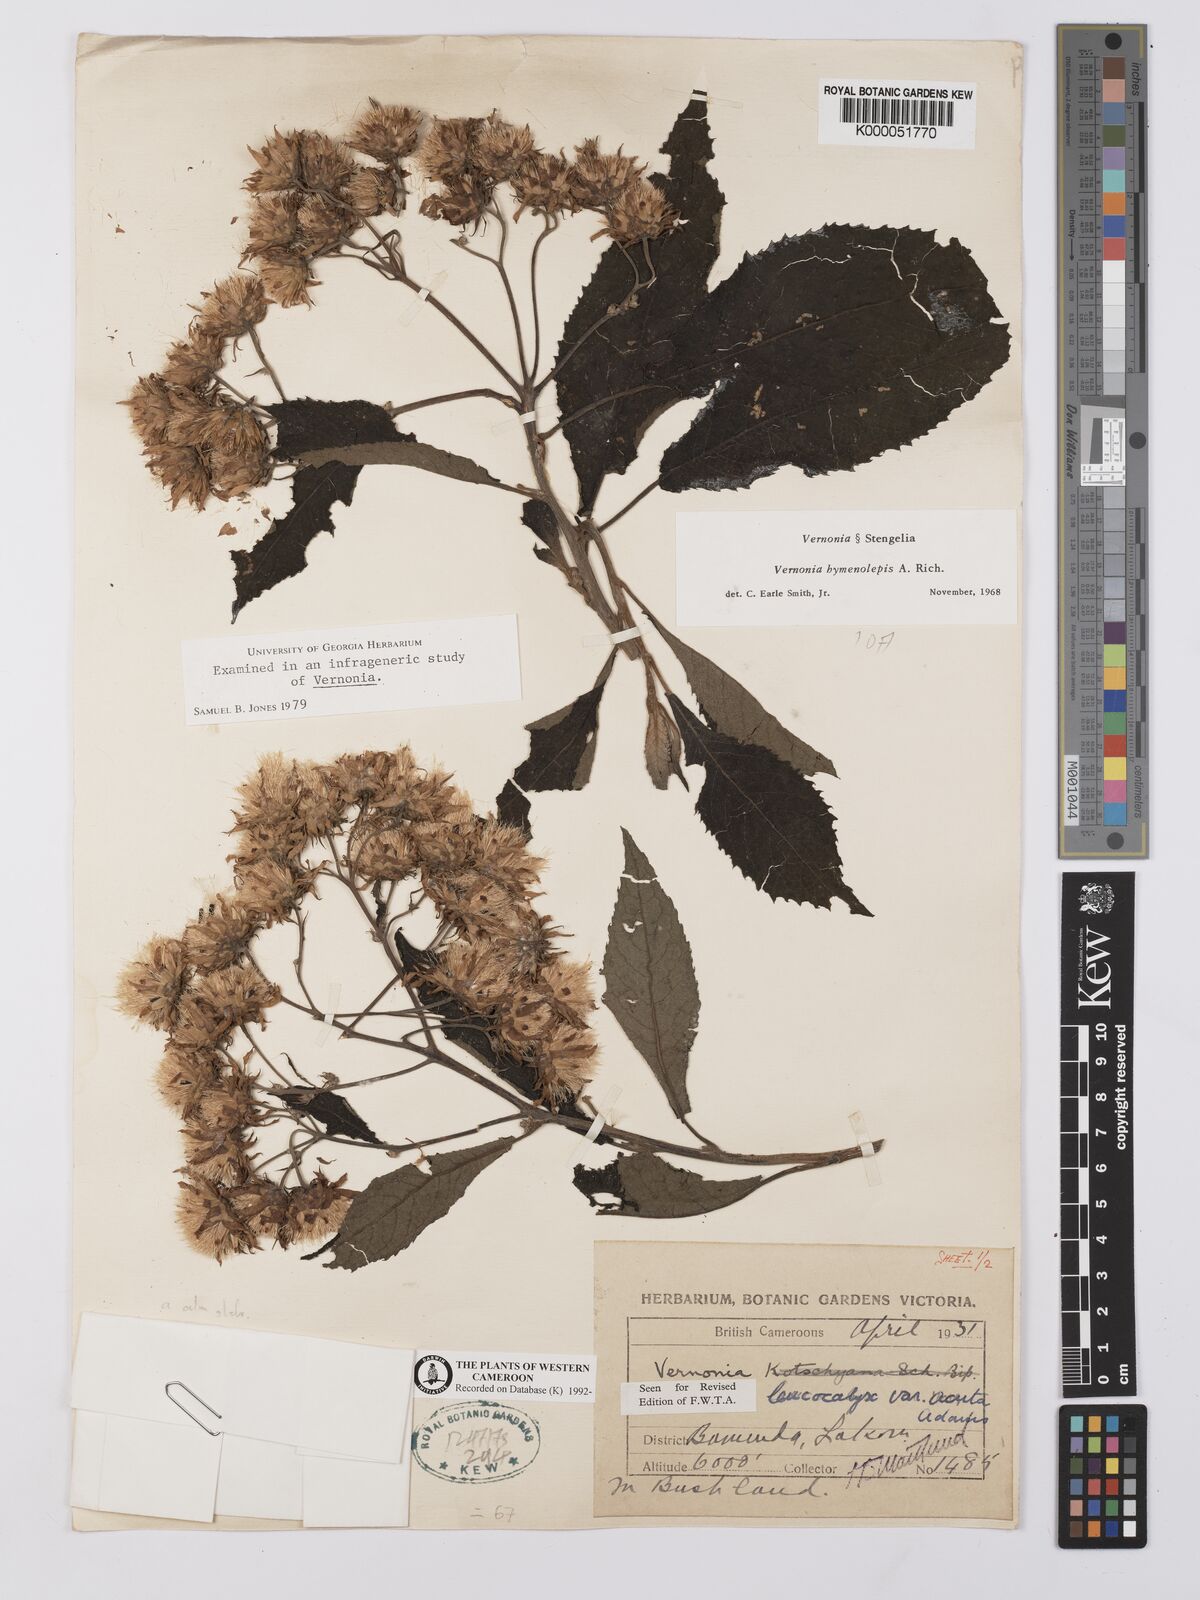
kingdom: Plantae
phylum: Tracheophyta
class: Magnoliopsida
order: Asterales
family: Asteraceae
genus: Baccharoides
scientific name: Baccharoides calvoana
